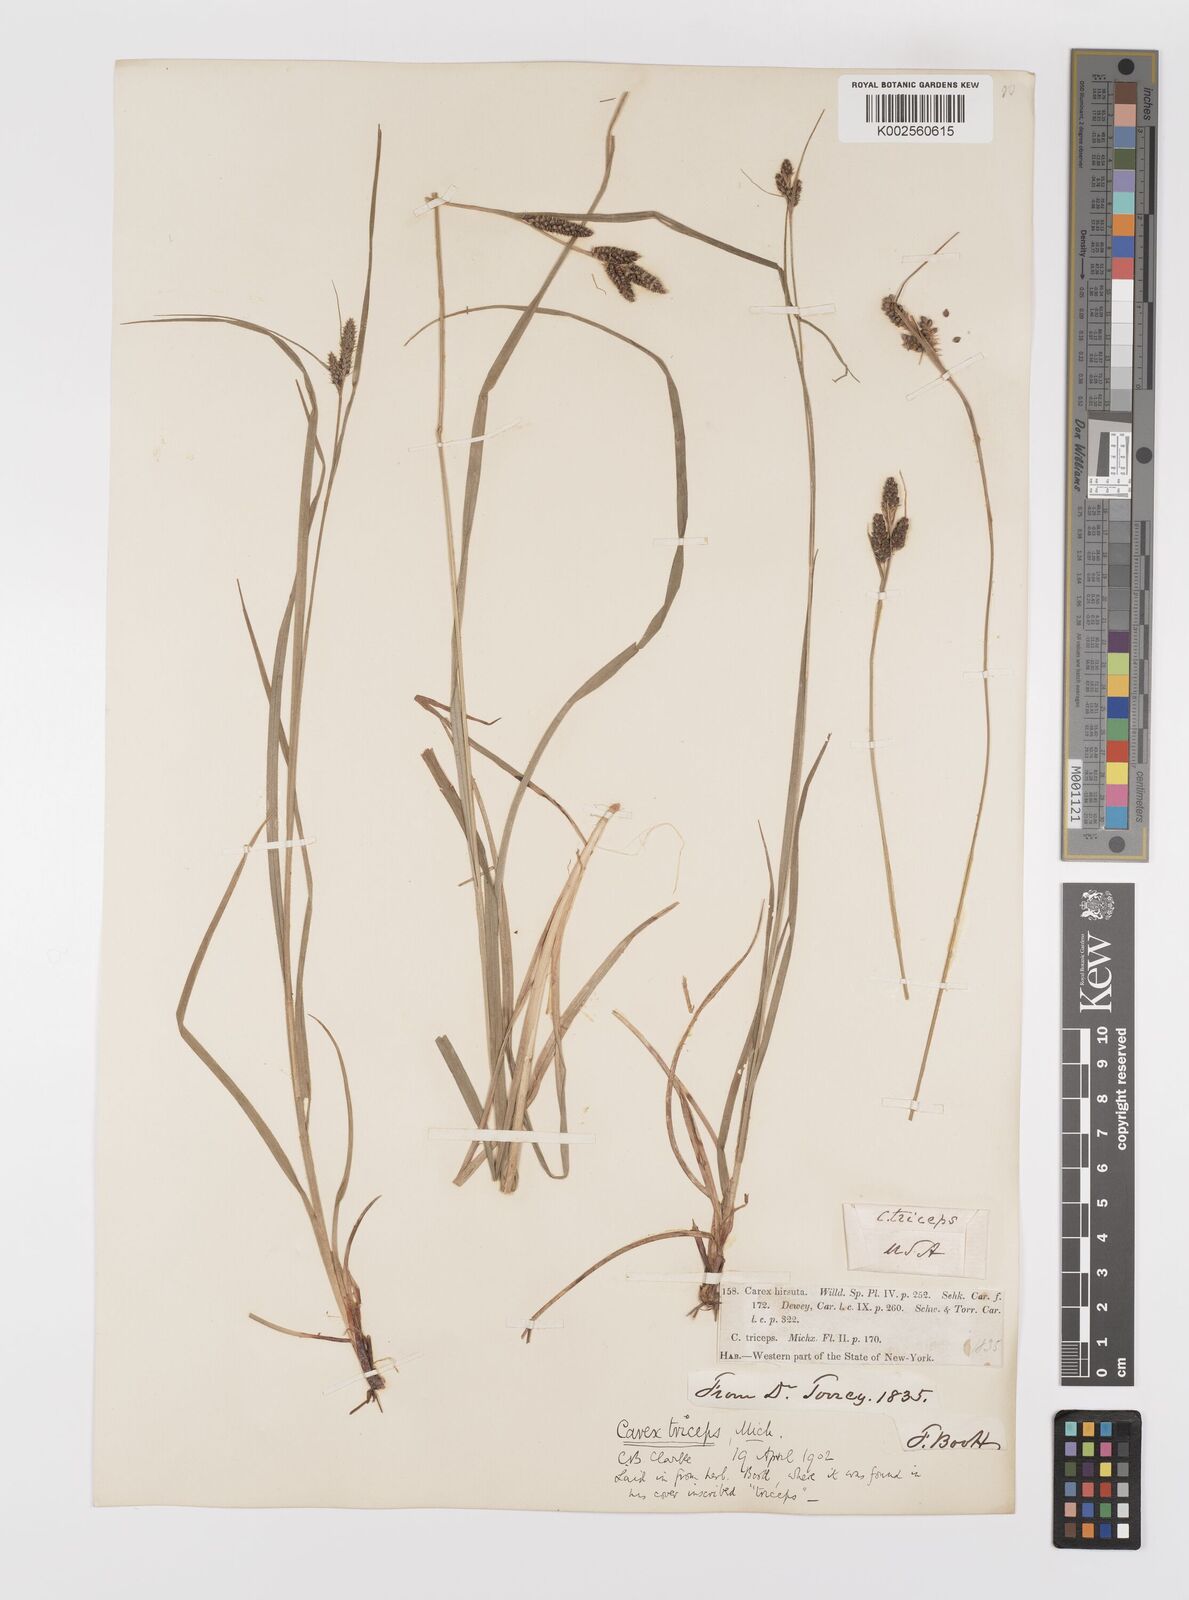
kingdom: Plantae
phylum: Tracheophyta
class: Liliopsida
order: Poales
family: Cyperaceae
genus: Carex
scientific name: Carex complanata
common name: Hirsute sedge
